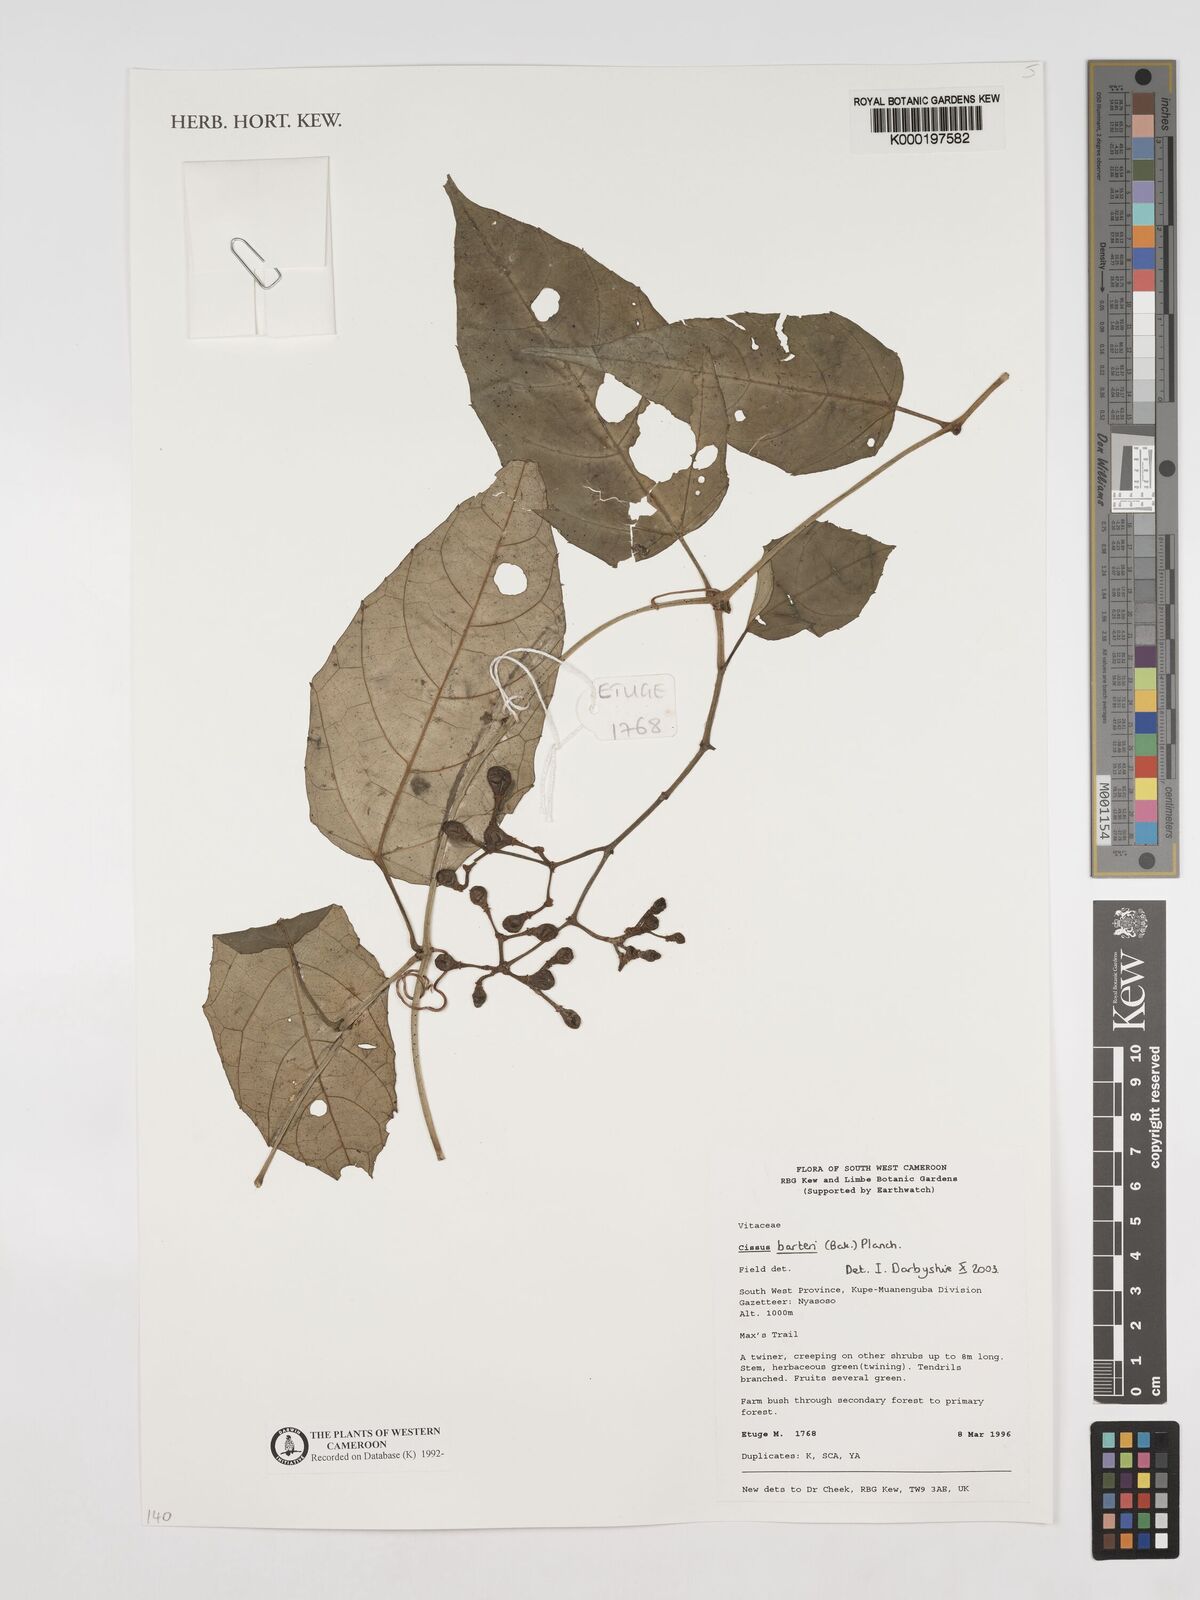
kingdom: Plantae
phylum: Tracheophyta
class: Magnoliopsida
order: Vitales
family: Vitaceae
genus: Cissus
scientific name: Cissus barteri
